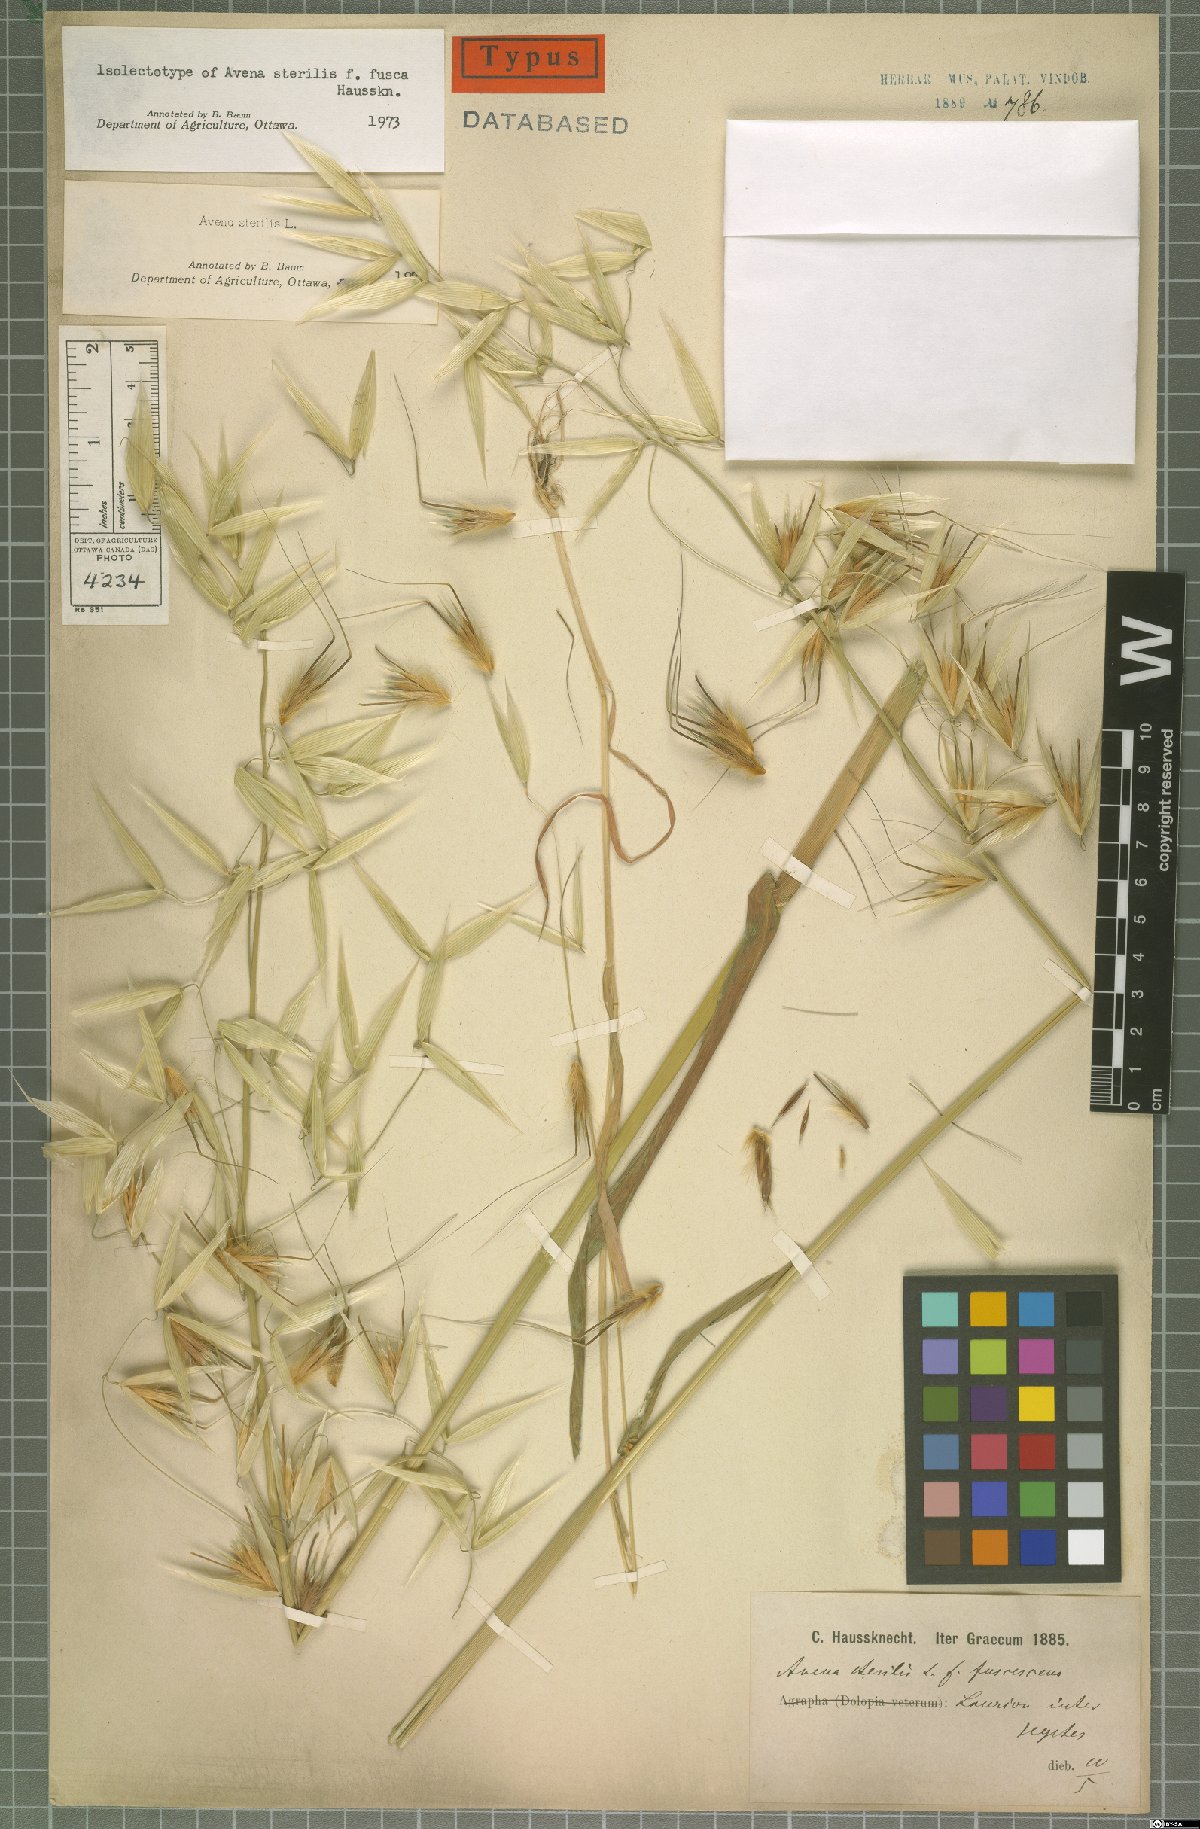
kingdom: Plantae
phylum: Tracheophyta
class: Liliopsida
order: Poales
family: Poaceae
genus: Avena
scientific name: Avena sterilis
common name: Animated oat
